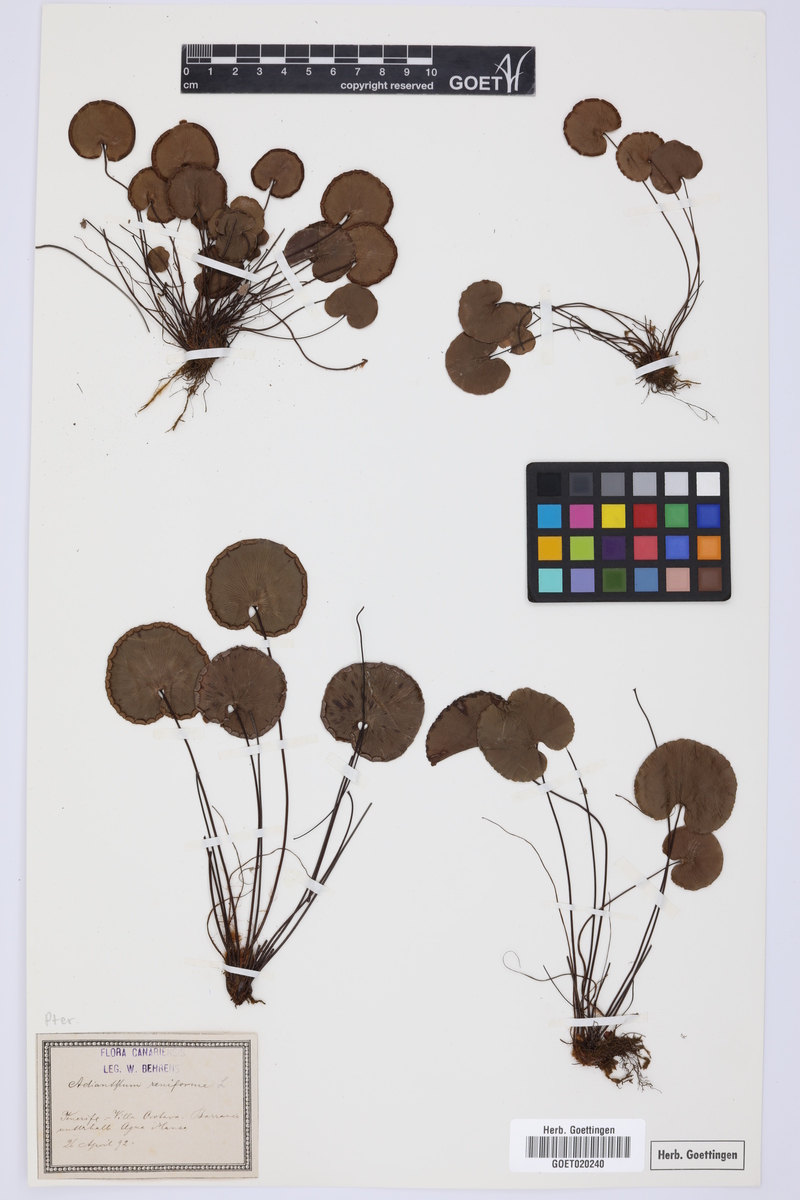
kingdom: Plantae
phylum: Tracheophyta
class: Polypodiopsida
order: Polypodiales
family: Pteridaceae
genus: Adiantum
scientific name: Adiantum reniforme
